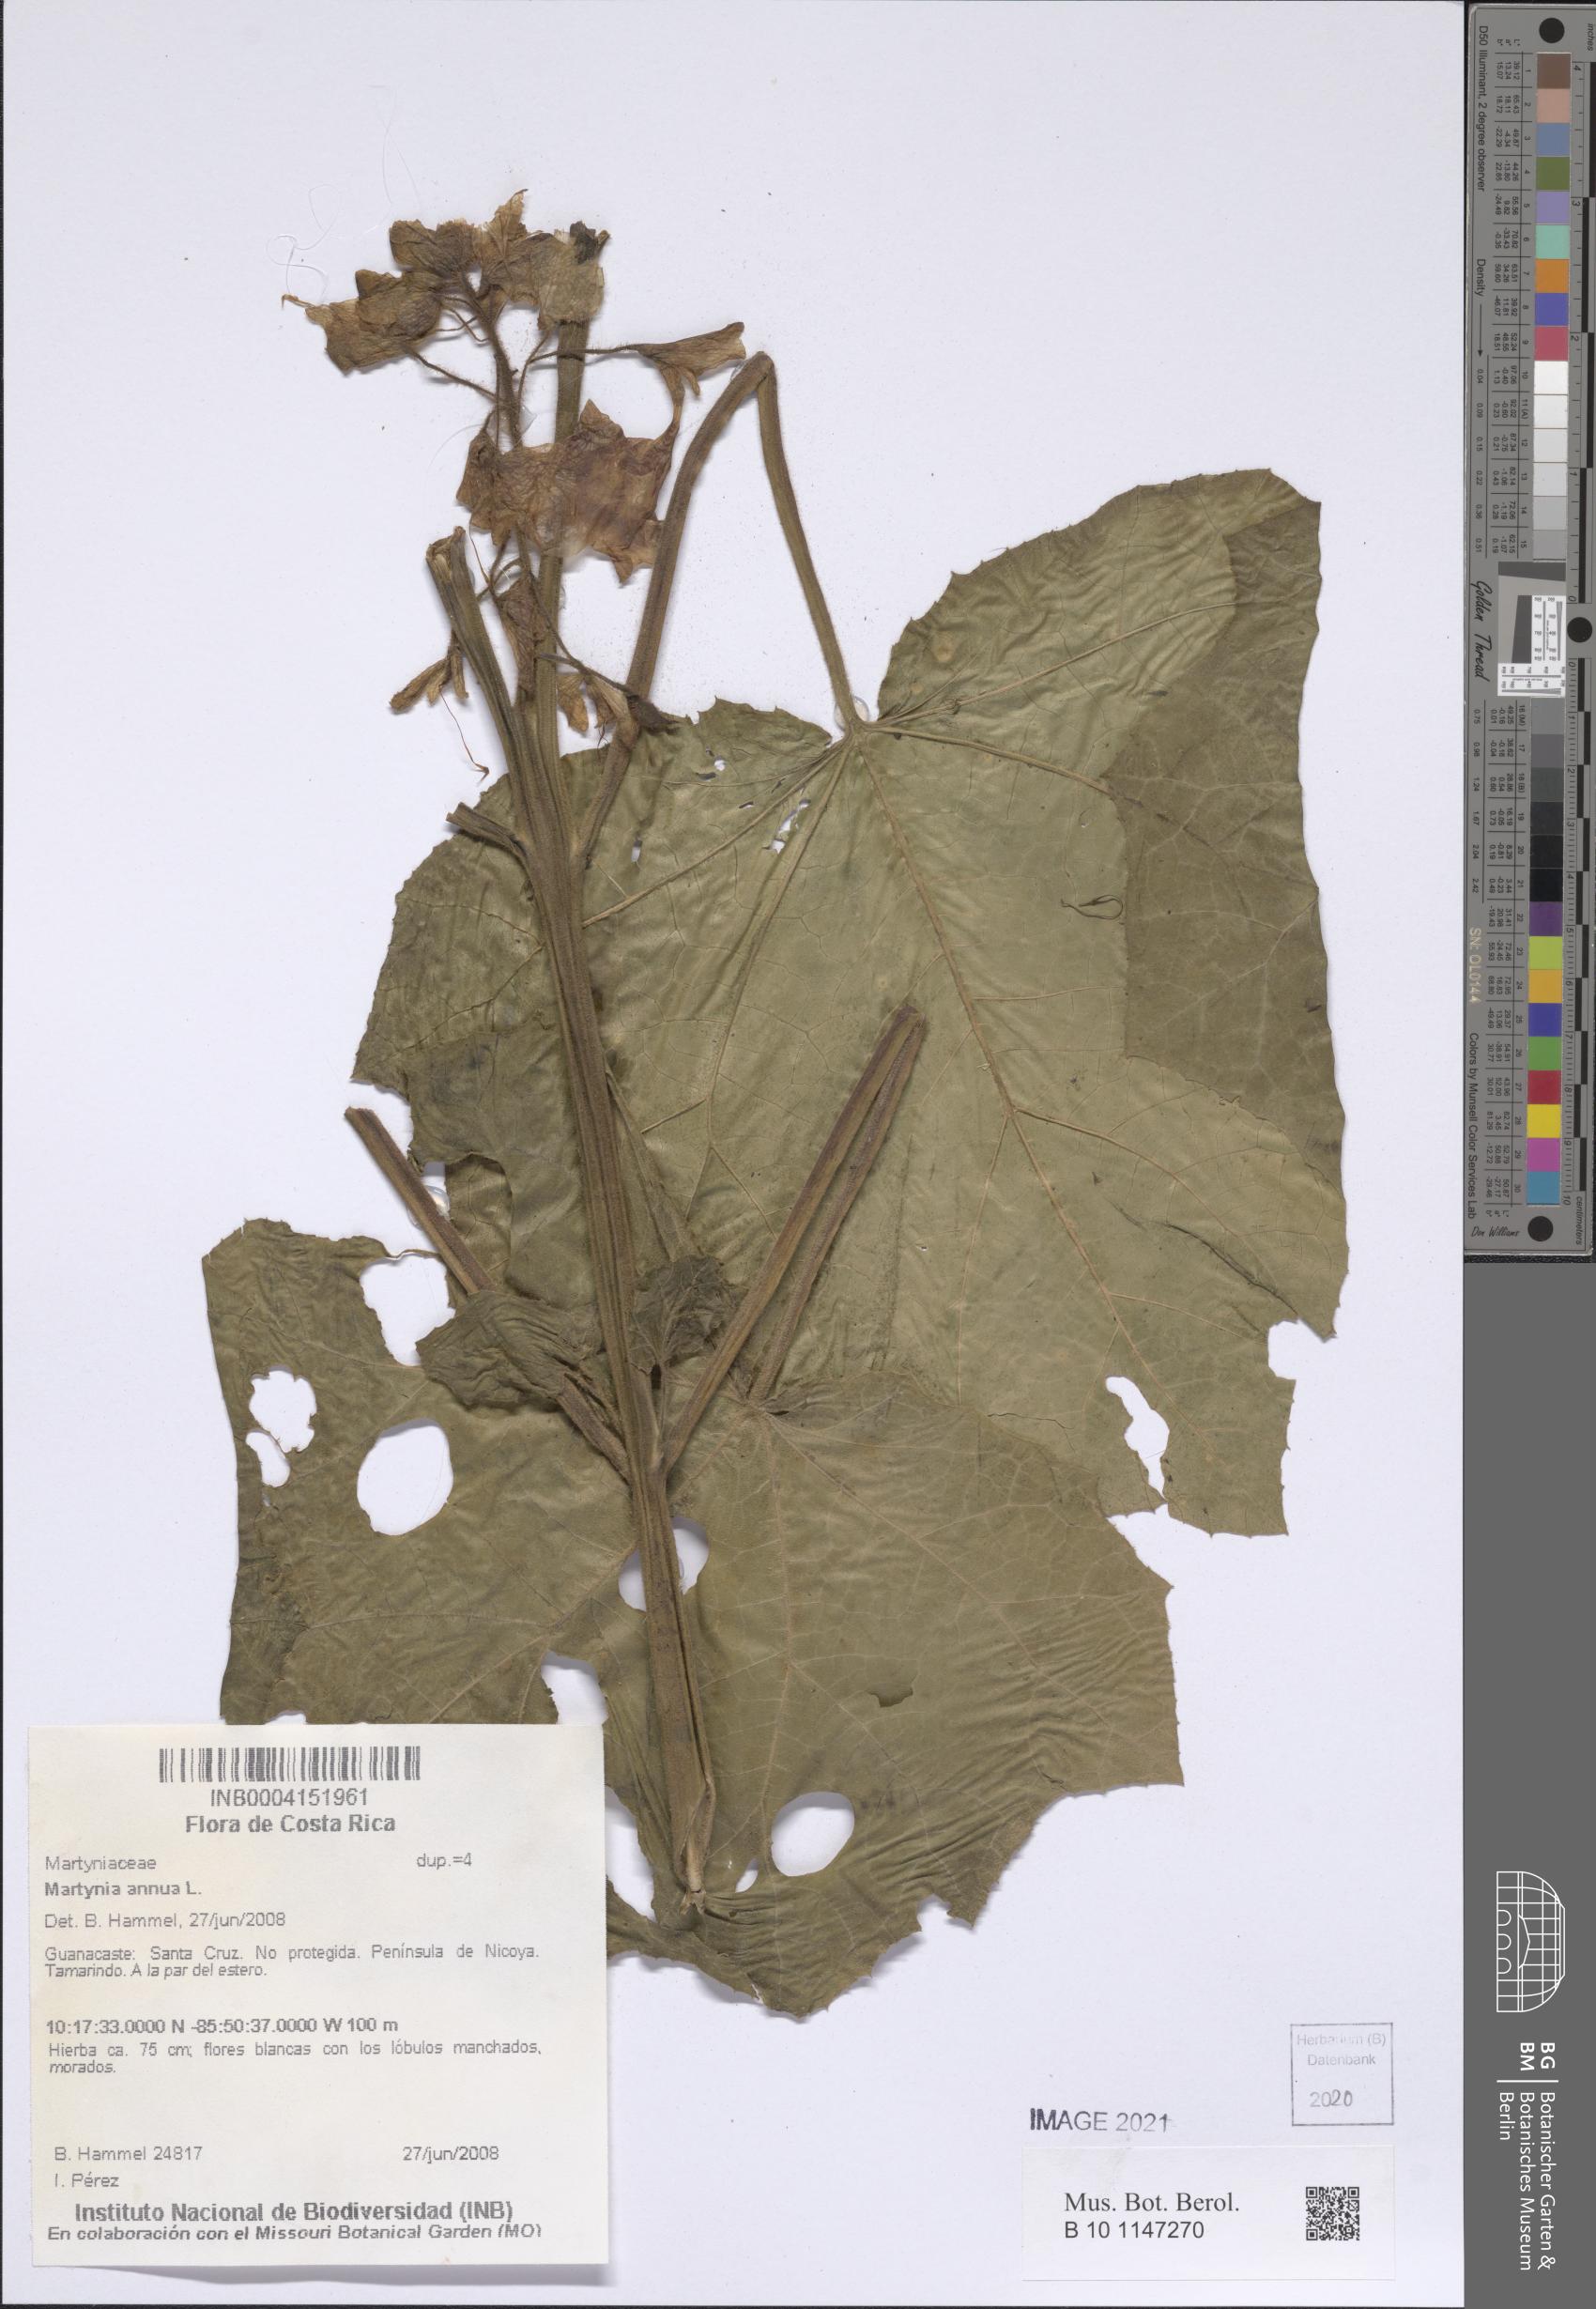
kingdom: Plantae
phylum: Tracheophyta
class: Magnoliopsida
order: Lamiales
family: Martyniaceae
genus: Martynia
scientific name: Martynia annua
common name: Tiger's-claw
